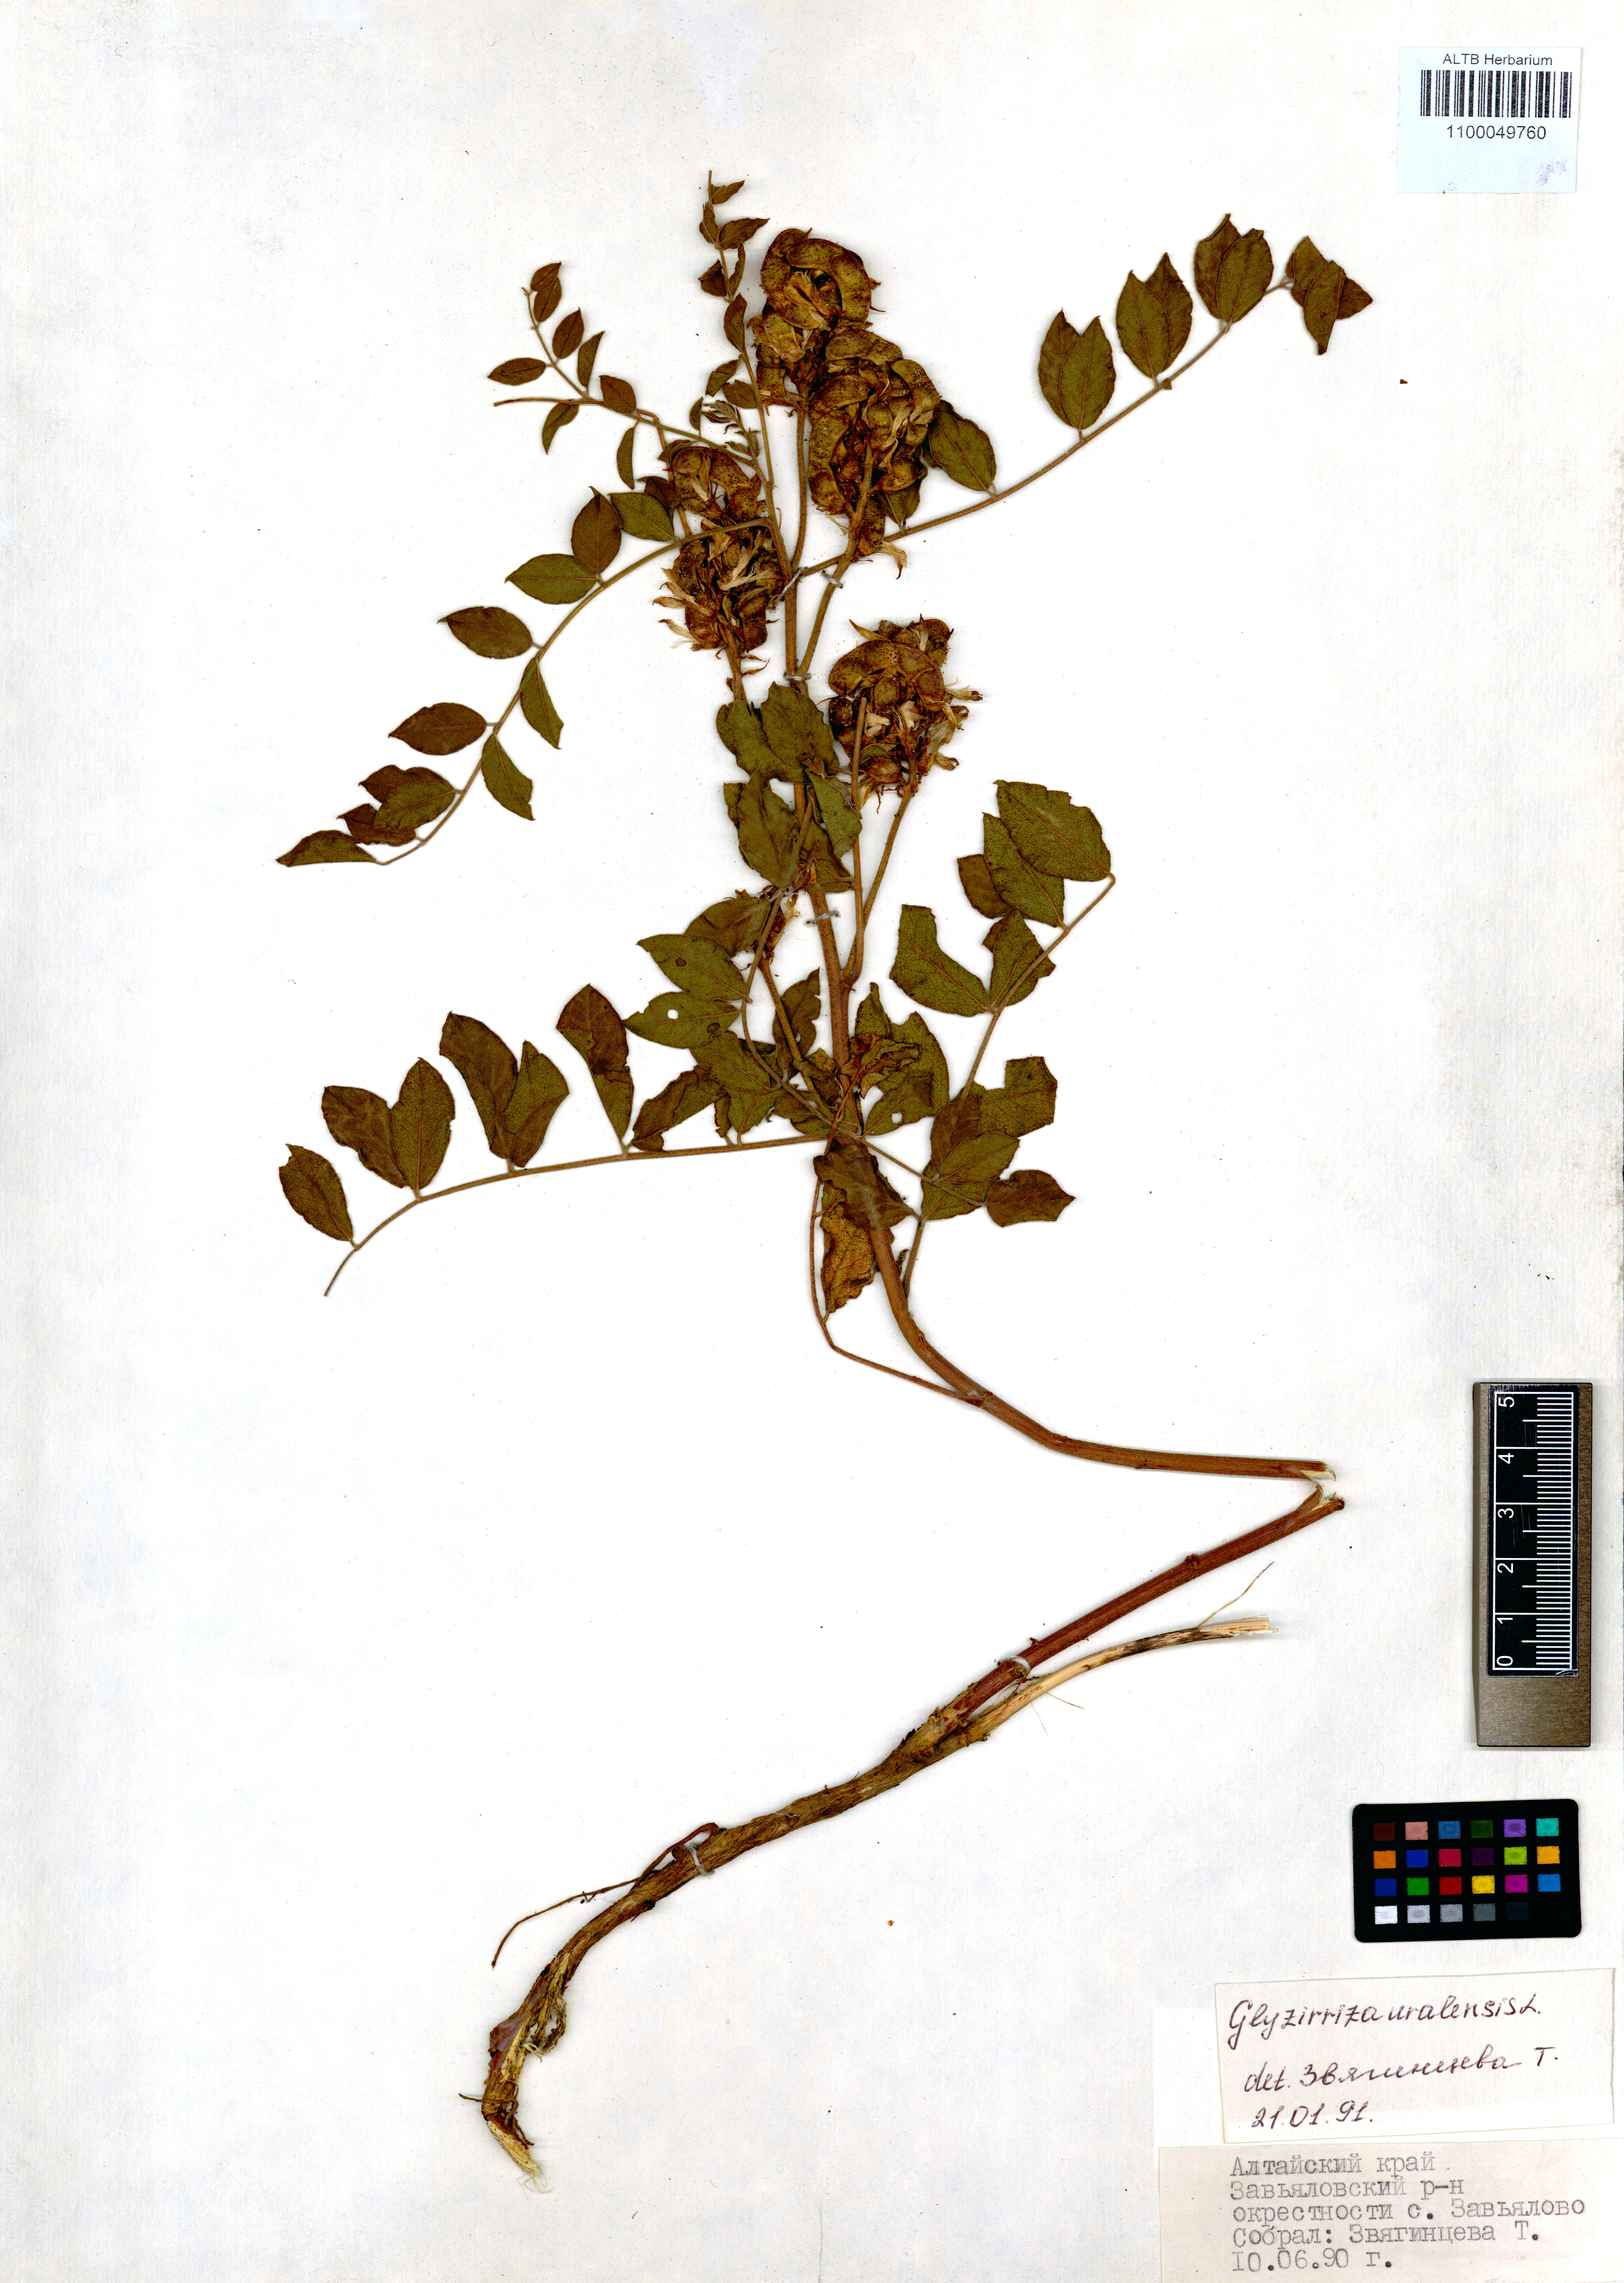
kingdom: Plantae
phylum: Tracheophyta
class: Magnoliopsida
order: Fabales
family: Fabaceae
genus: Glycyrrhiza
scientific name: Glycyrrhiza uralensis
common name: Chinese licorice
